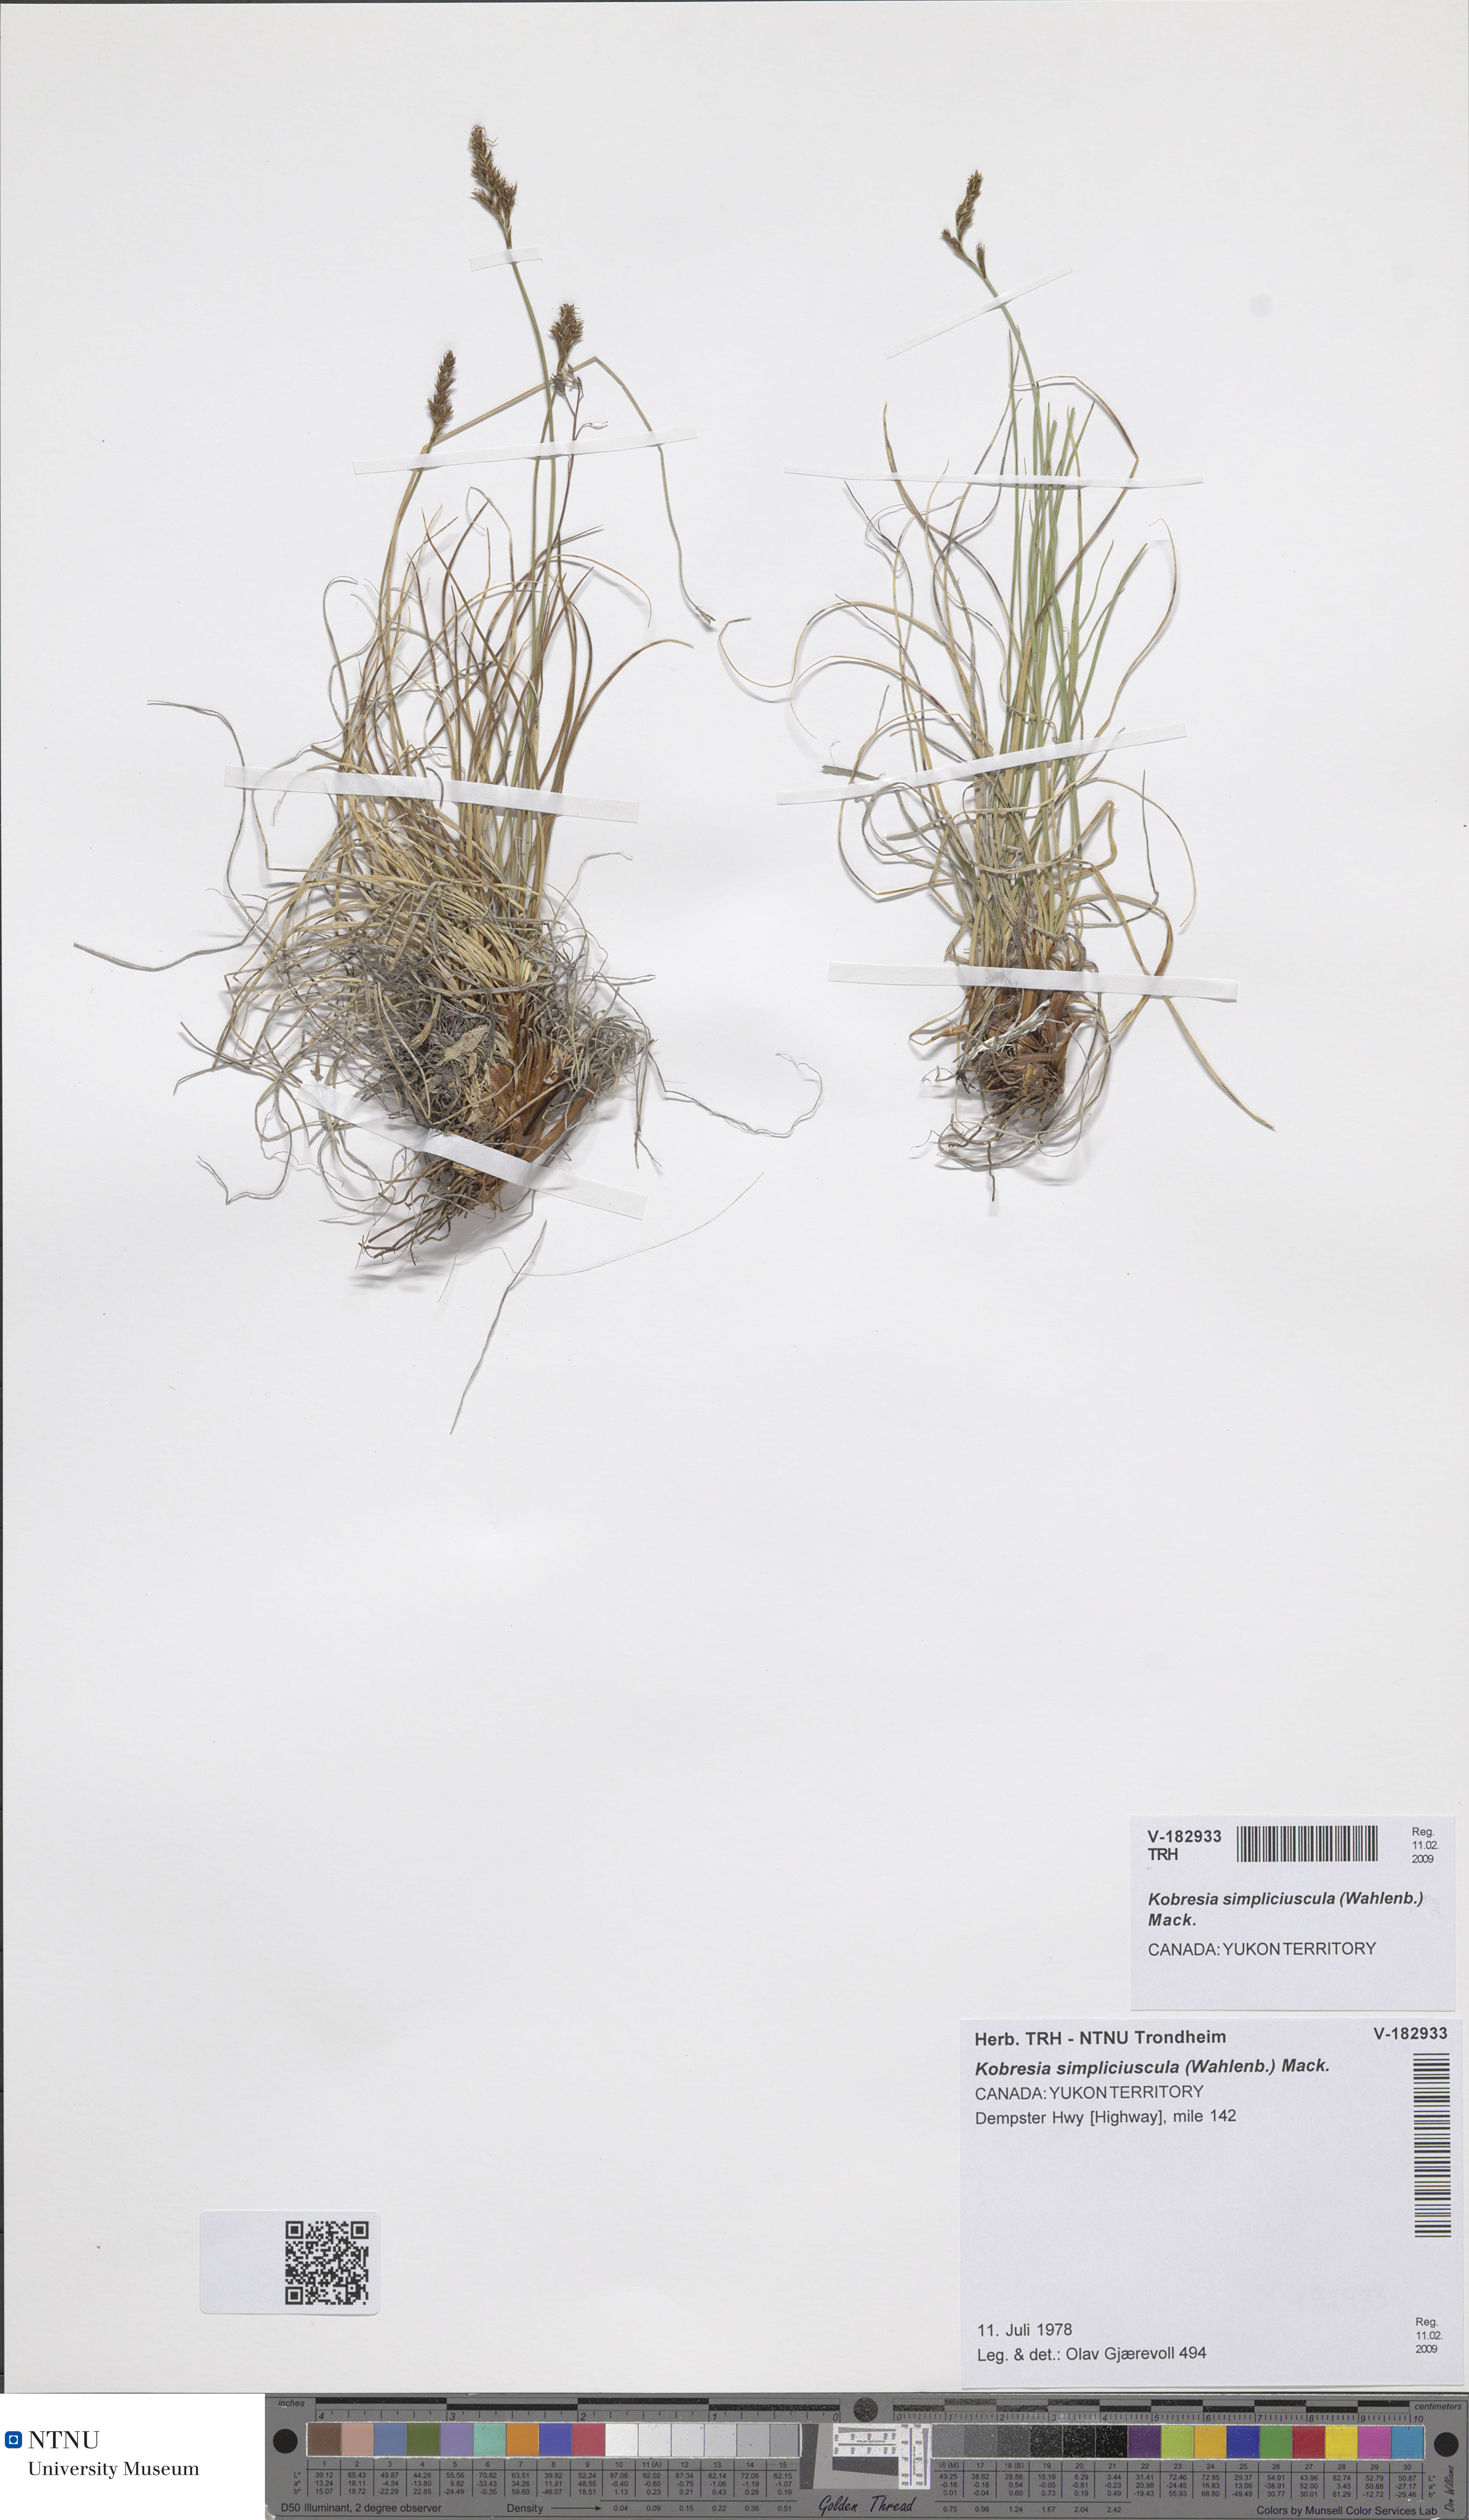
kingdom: Plantae
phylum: Tracheophyta
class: Liliopsida
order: Poales
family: Cyperaceae
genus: Carex
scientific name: Carex simpliciuscula
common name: Simple bog sedge
